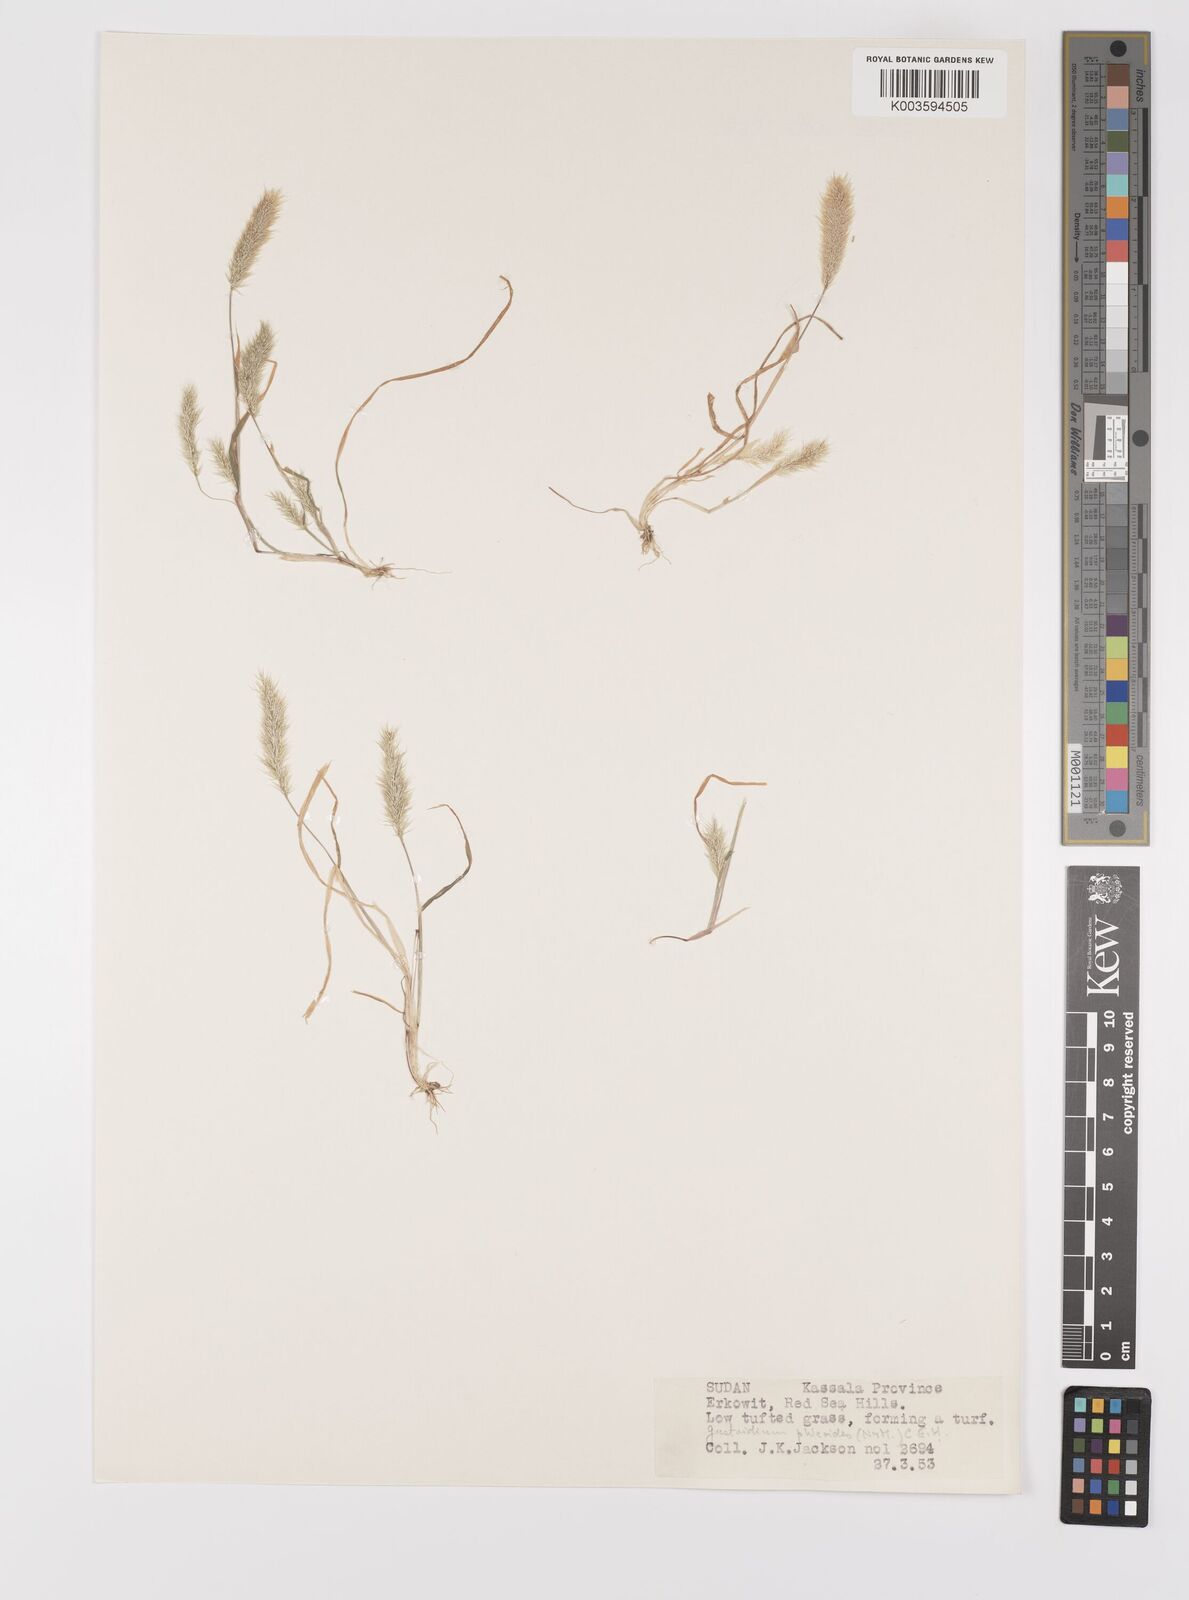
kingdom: Plantae
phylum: Tracheophyta
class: Liliopsida
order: Poales
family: Poaceae
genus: Gastridium
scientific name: Gastridium phleoides
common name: Nit grass
